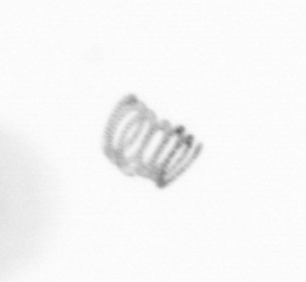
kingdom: Chromista
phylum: Ochrophyta
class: Bacillariophyceae
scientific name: Bacillariophyceae
